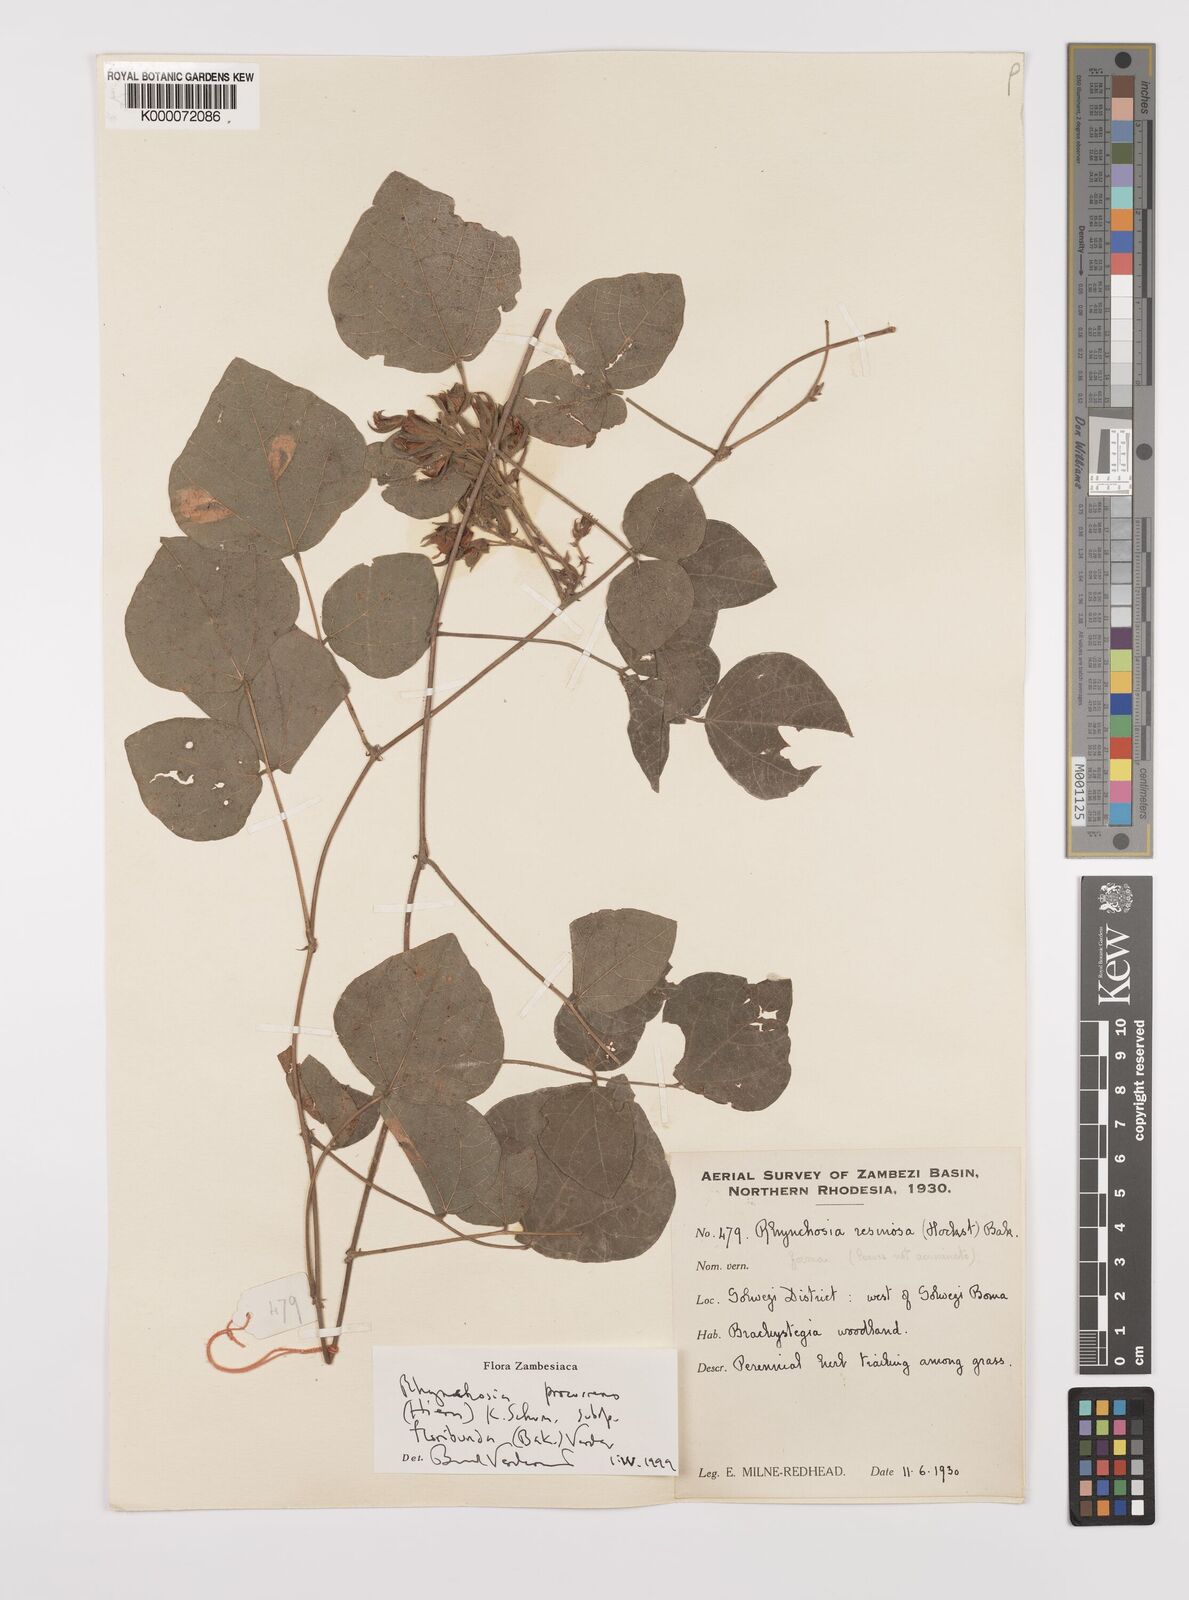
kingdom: Plantae
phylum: Tracheophyta
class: Magnoliopsida
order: Fabales
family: Fabaceae
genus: Rhynchosia
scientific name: Rhynchosia procurrens
